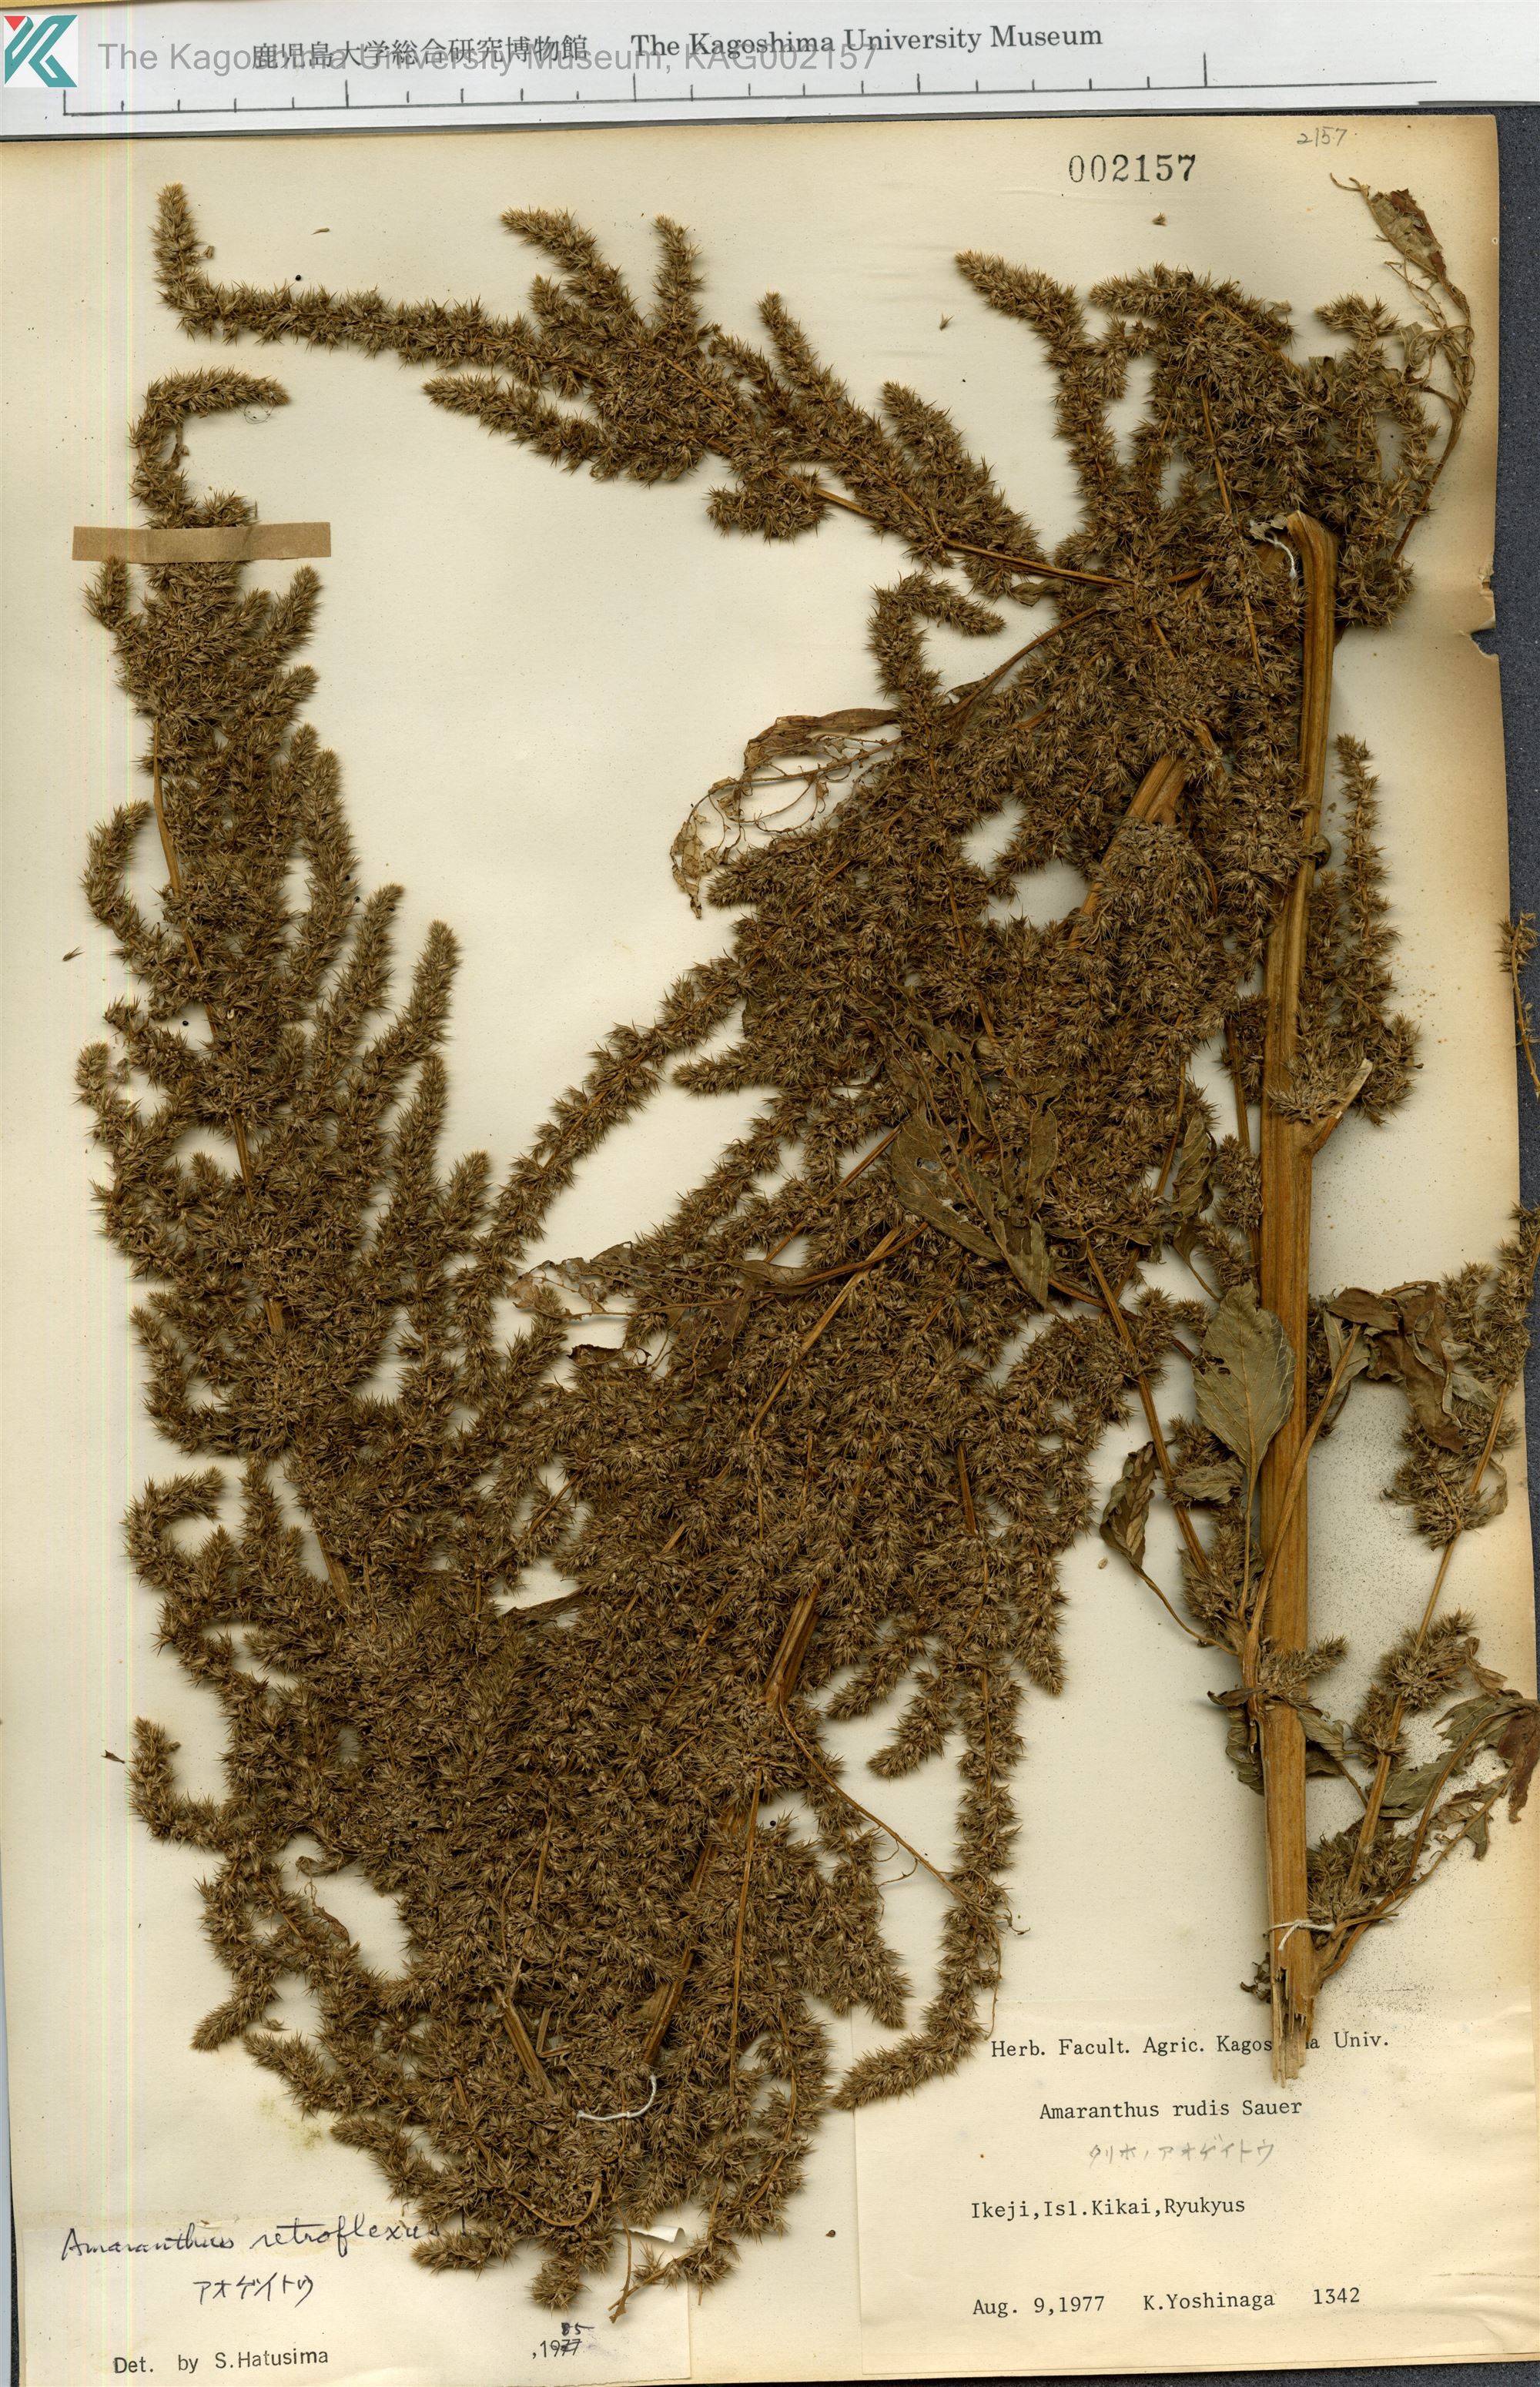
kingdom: Plantae
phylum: Tracheophyta
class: Magnoliopsida
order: Caryophyllales
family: Amaranthaceae
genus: Amaranthus
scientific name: Amaranthus retroflexus
